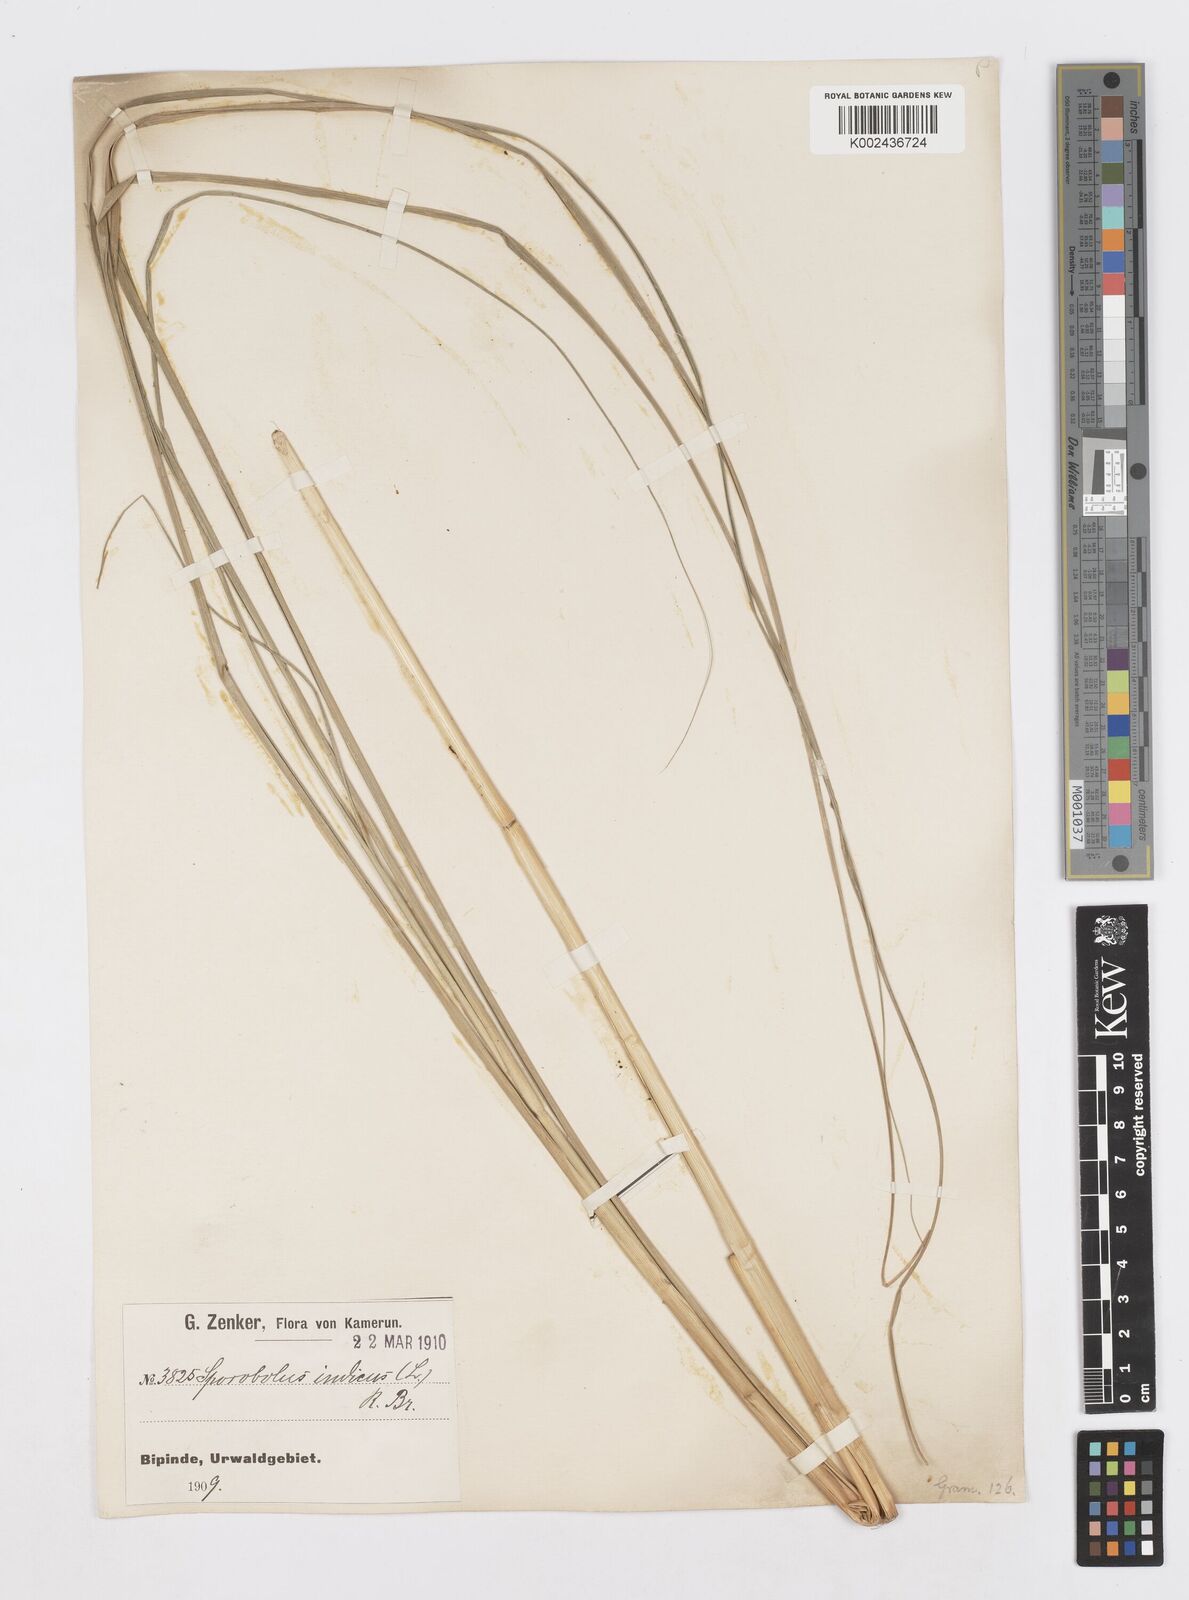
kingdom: Plantae
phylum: Tracheophyta
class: Liliopsida
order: Poales
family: Poaceae
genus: Sporobolus
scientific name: Sporobolus pyramidalis
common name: West indian dropseed
